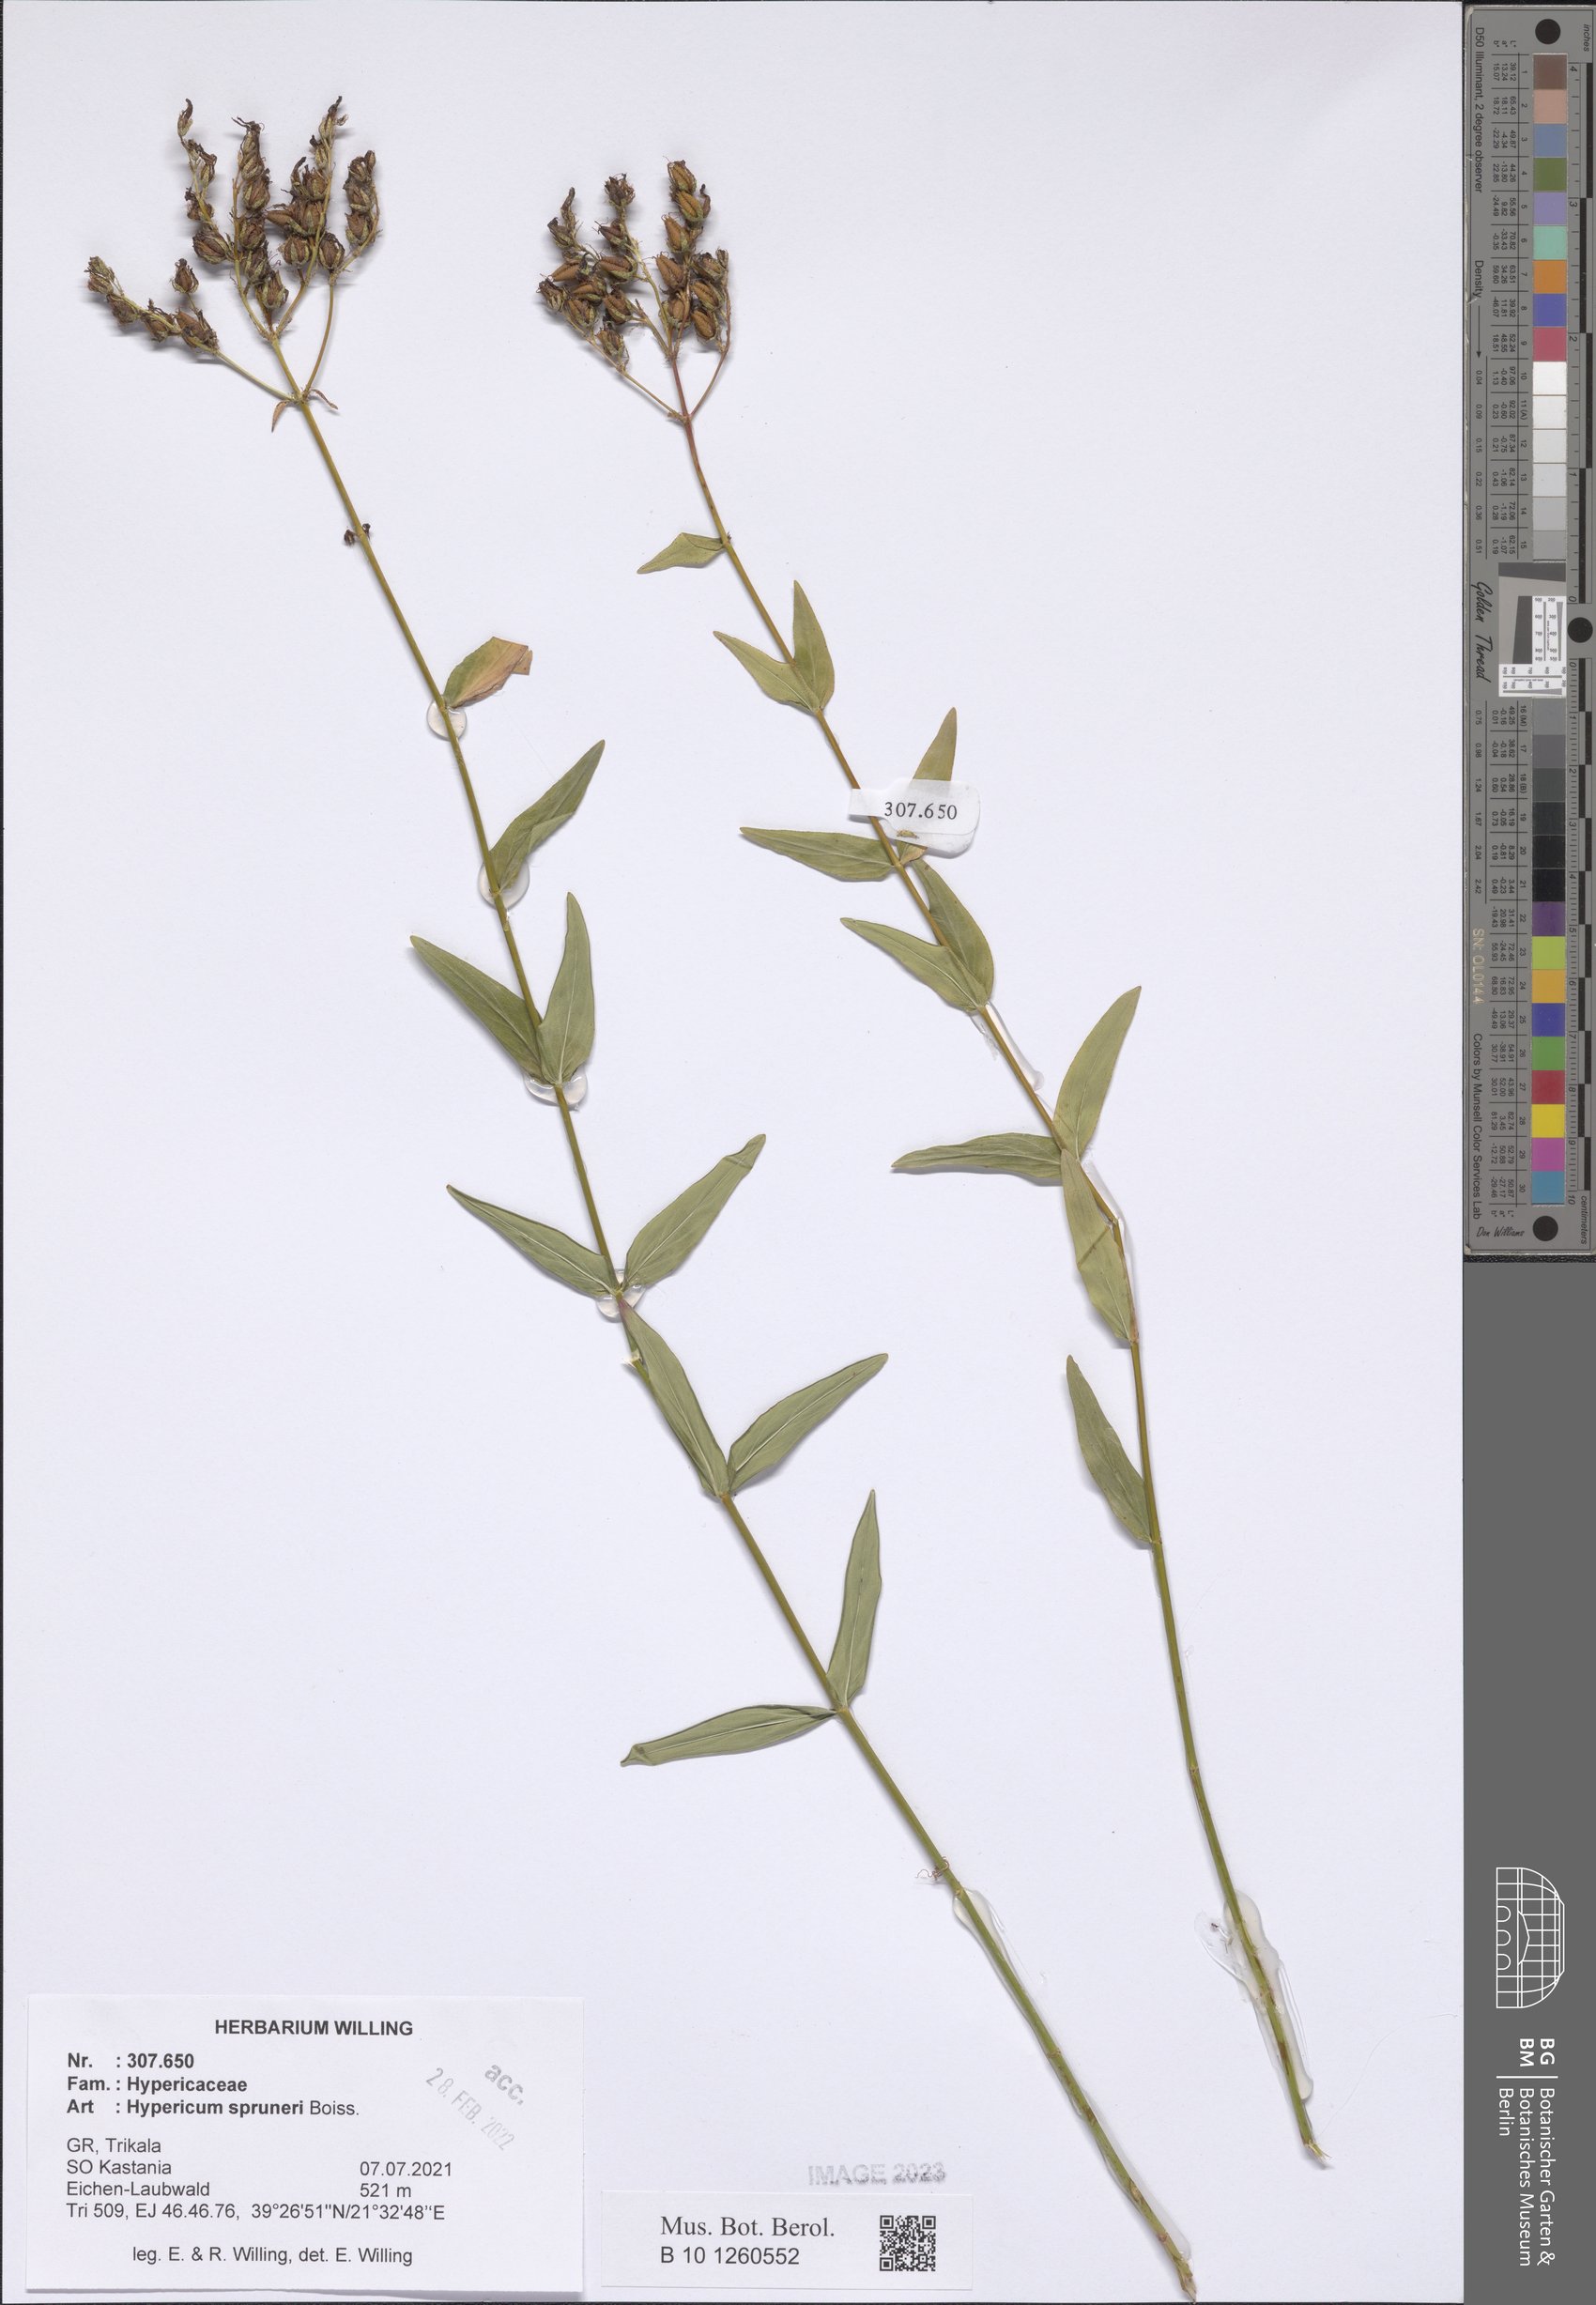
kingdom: Plantae
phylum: Tracheophyta
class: Magnoliopsida
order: Malpighiales
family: Hypericaceae
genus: Hypericum
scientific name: Hypericum spruneri
